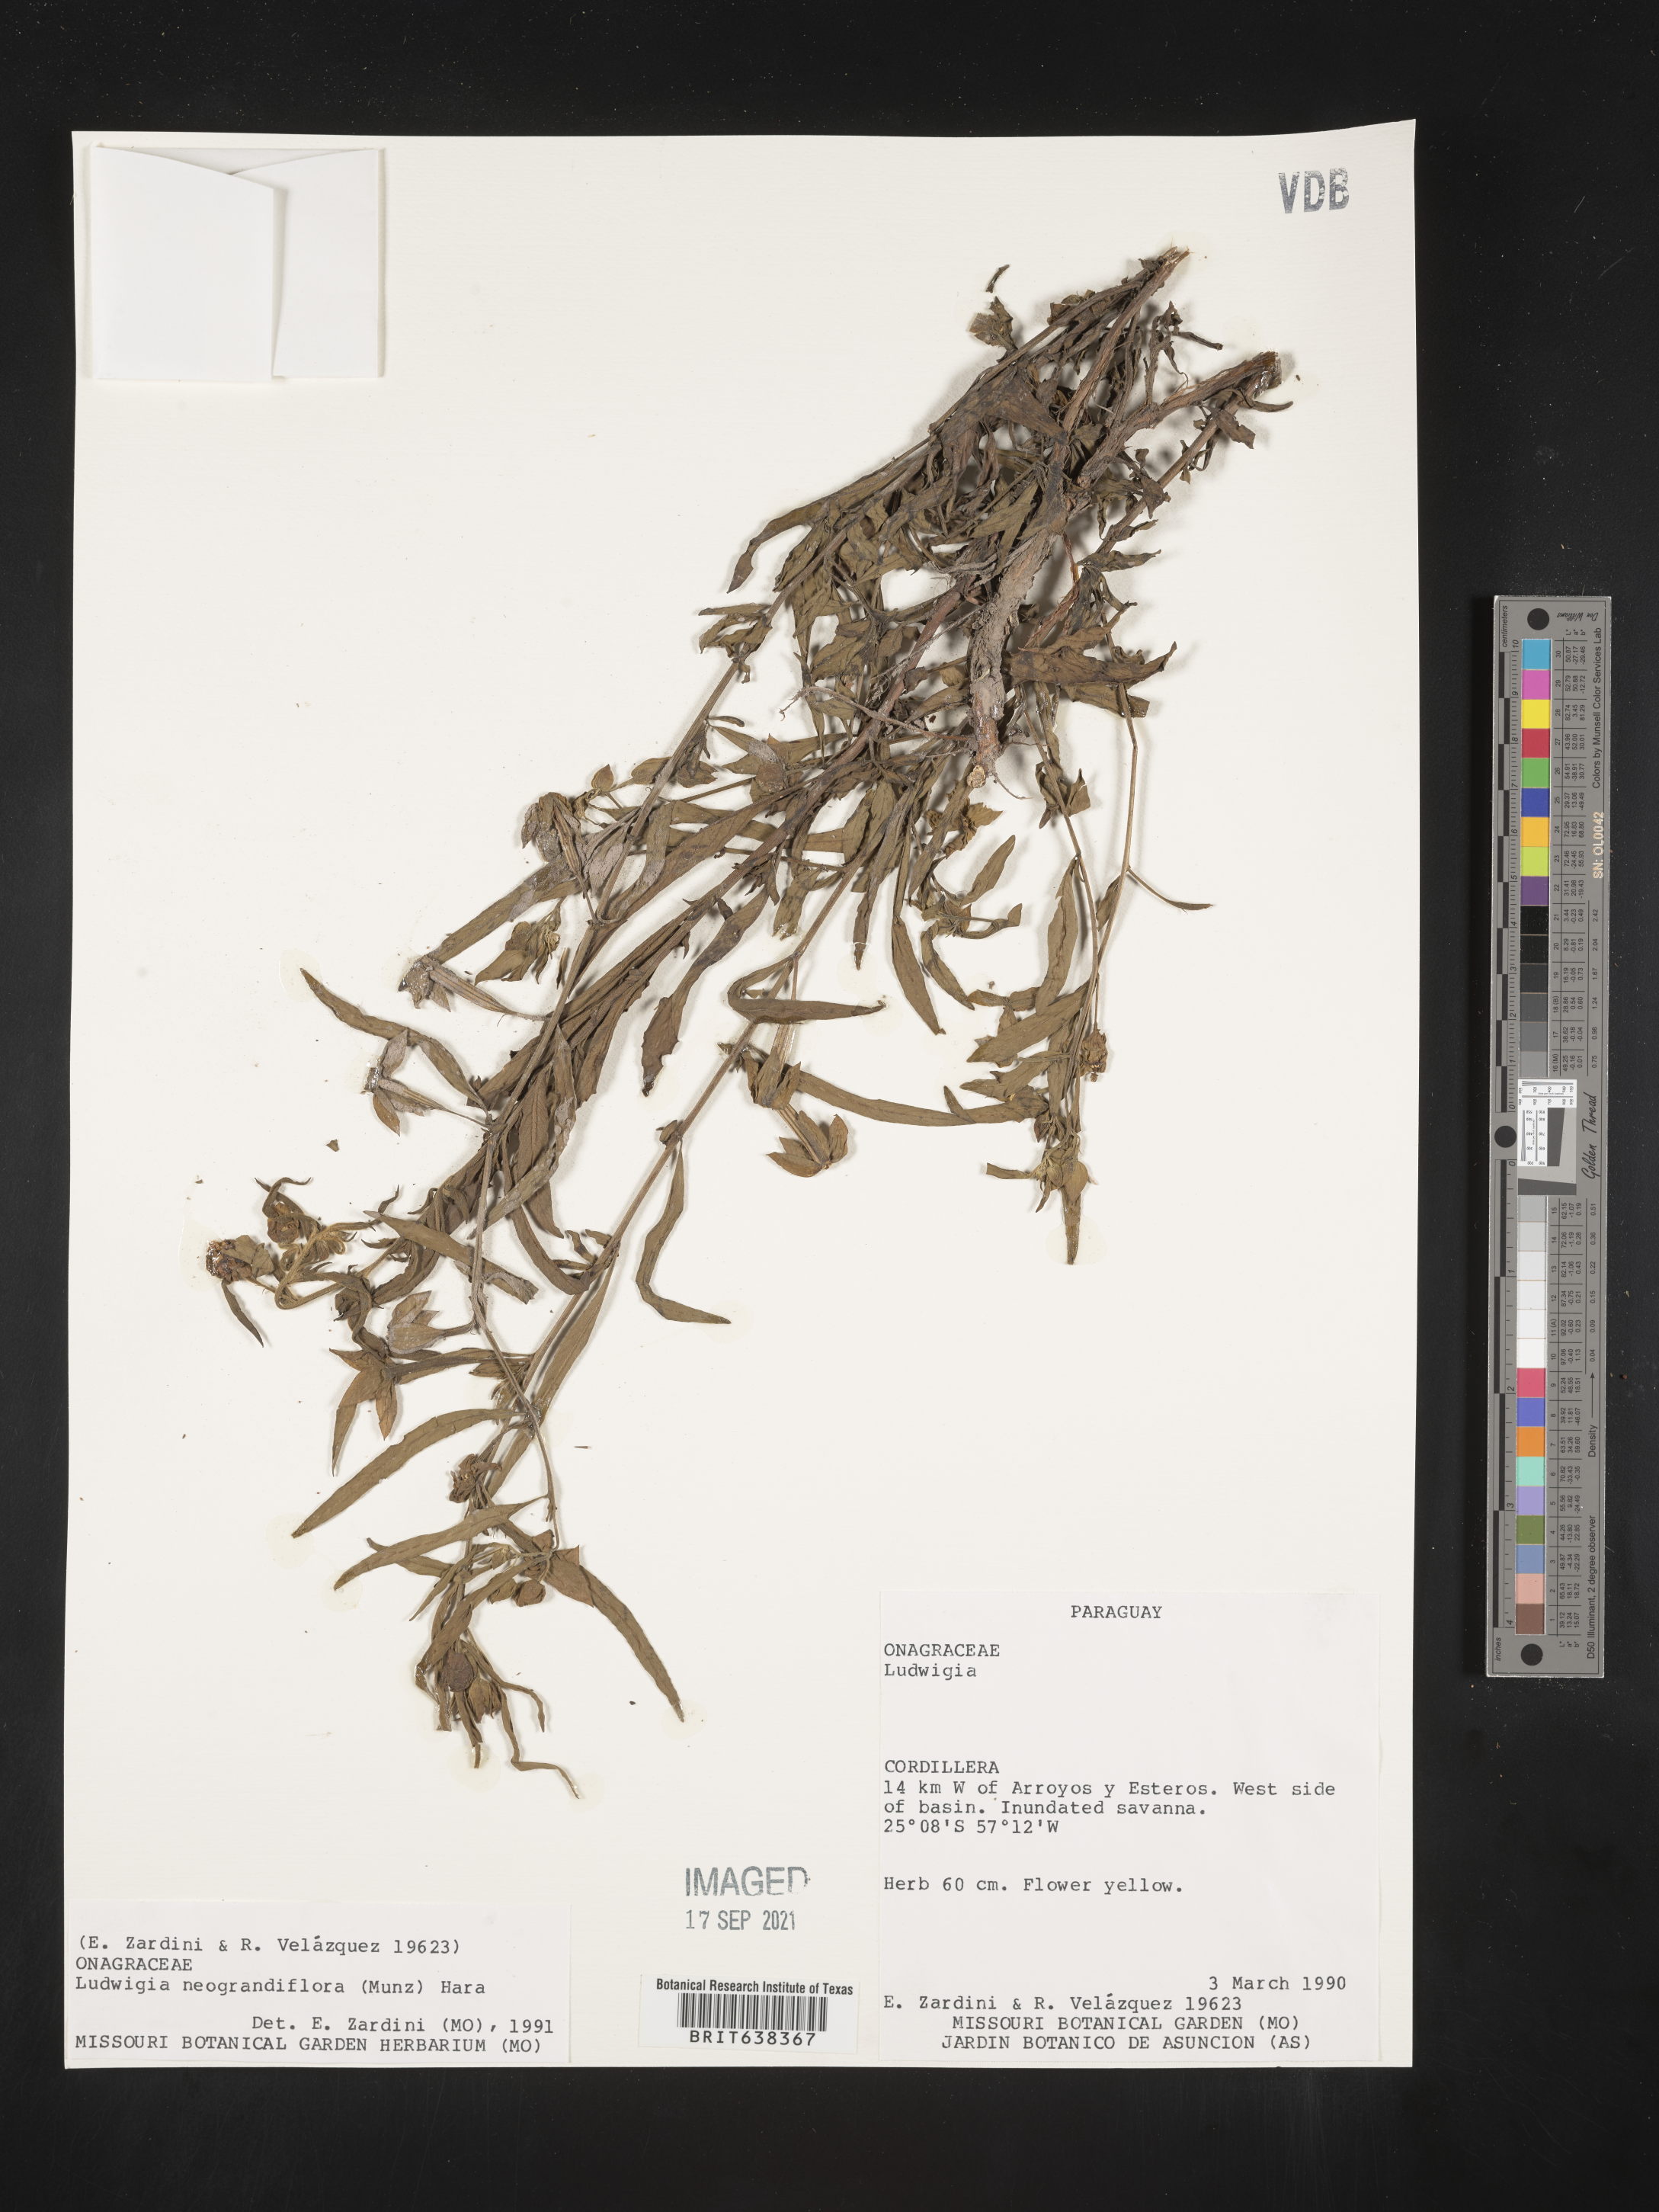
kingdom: Plantae
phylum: Tracheophyta
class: Magnoliopsida
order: Myrtales
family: Onagraceae
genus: Ludwigia
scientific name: Ludwigia
